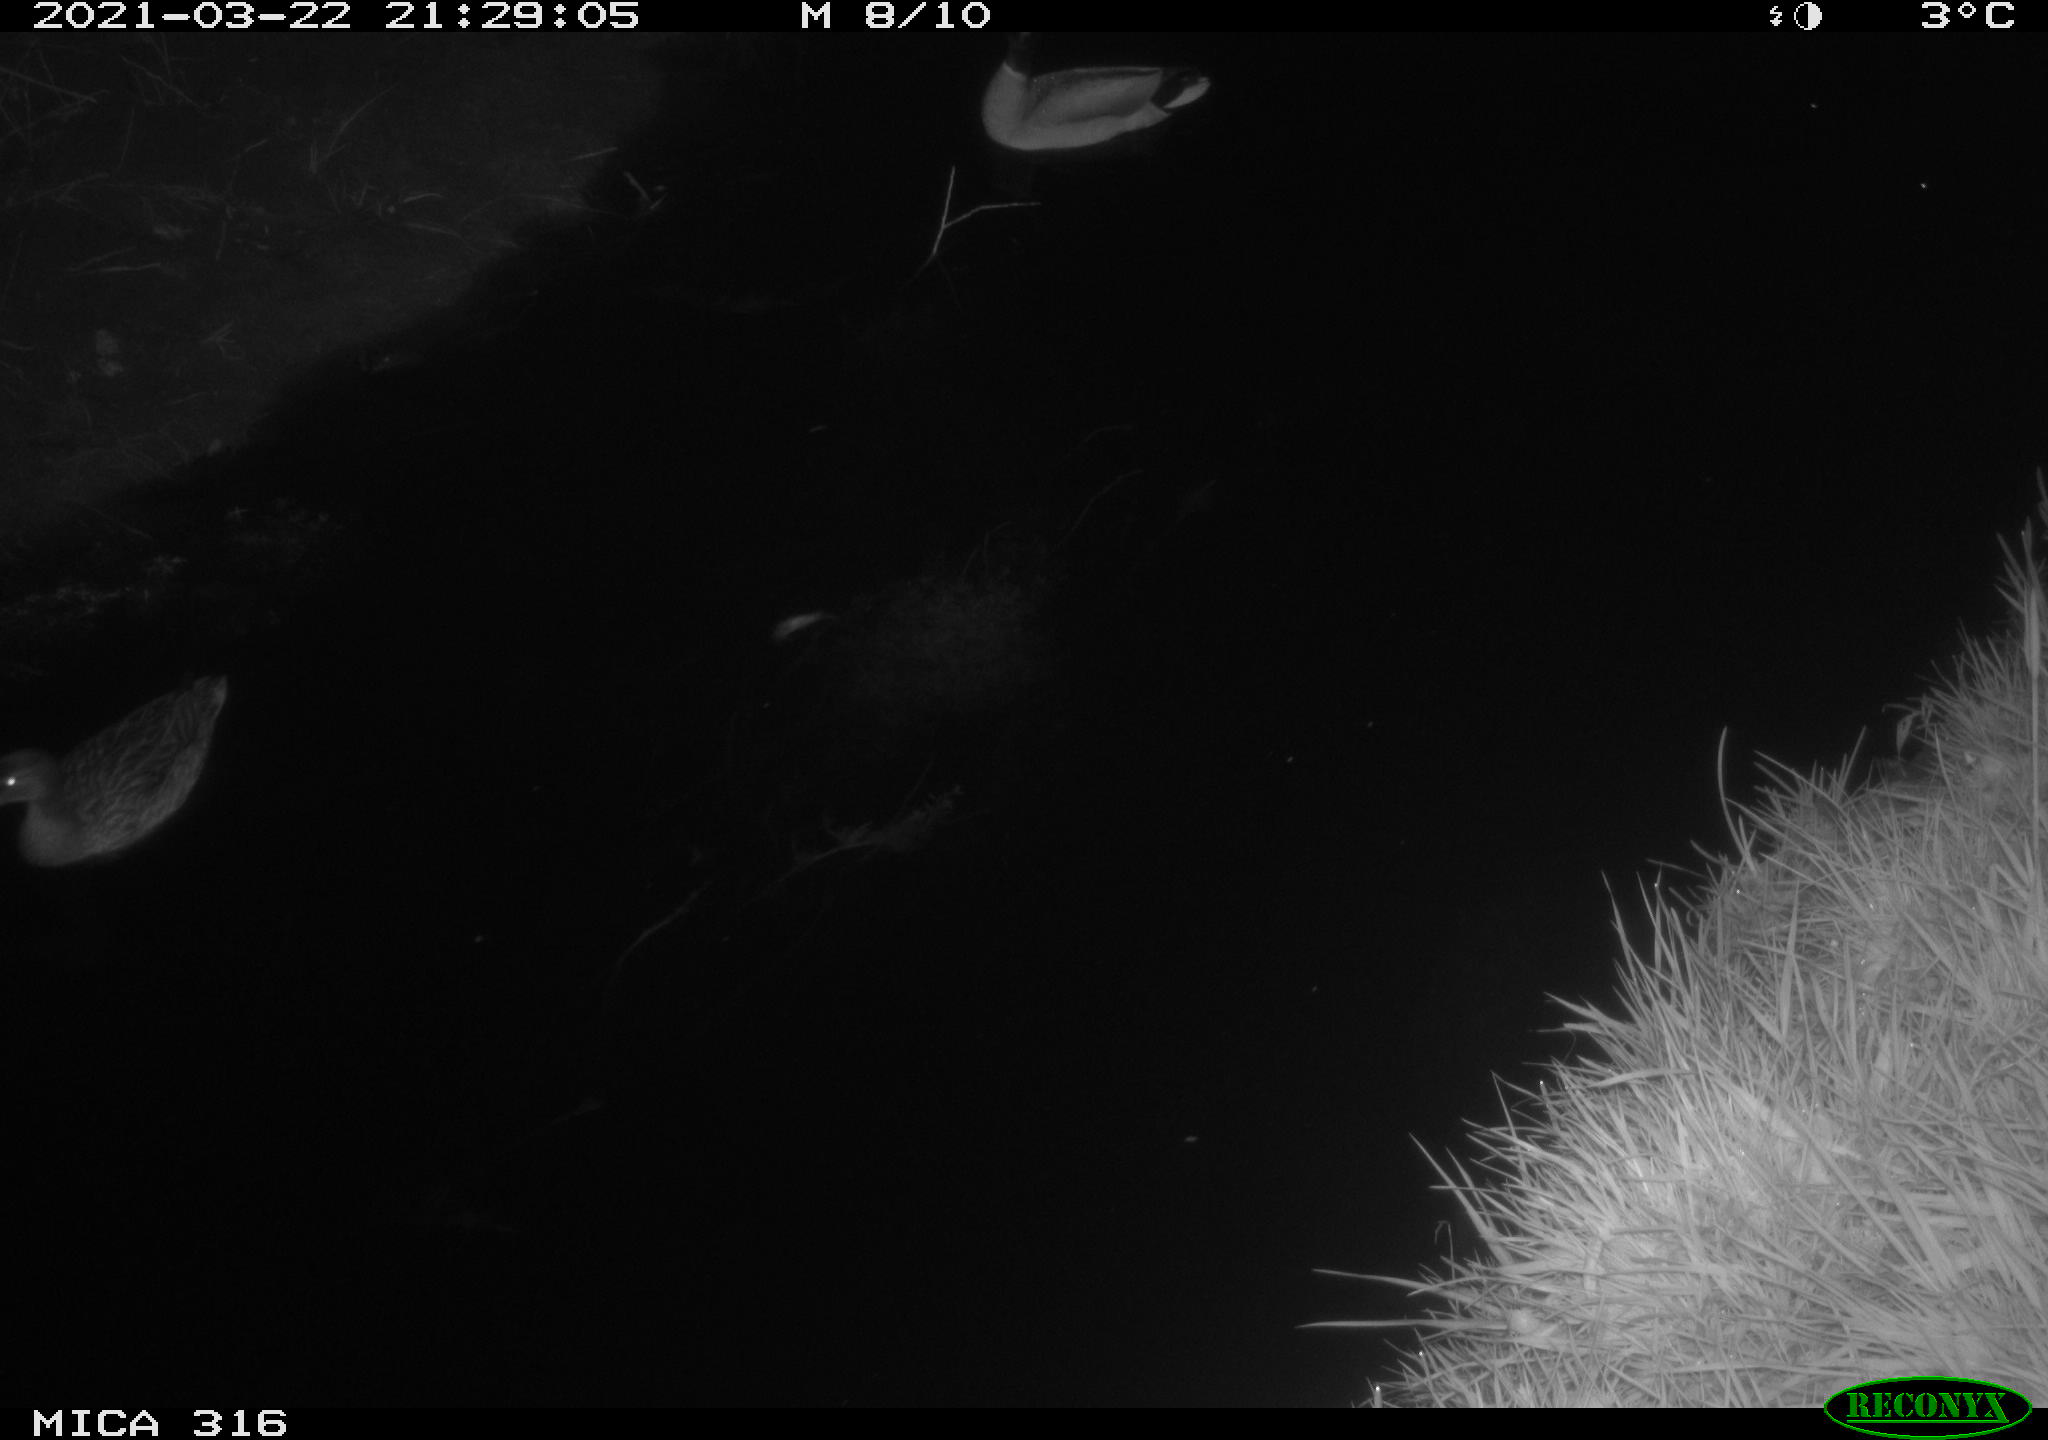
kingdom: Animalia
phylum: Chordata
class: Aves
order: Gruiformes
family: Rallidae
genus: Gallinula
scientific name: Gallinula chloropus
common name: Common moorhen
